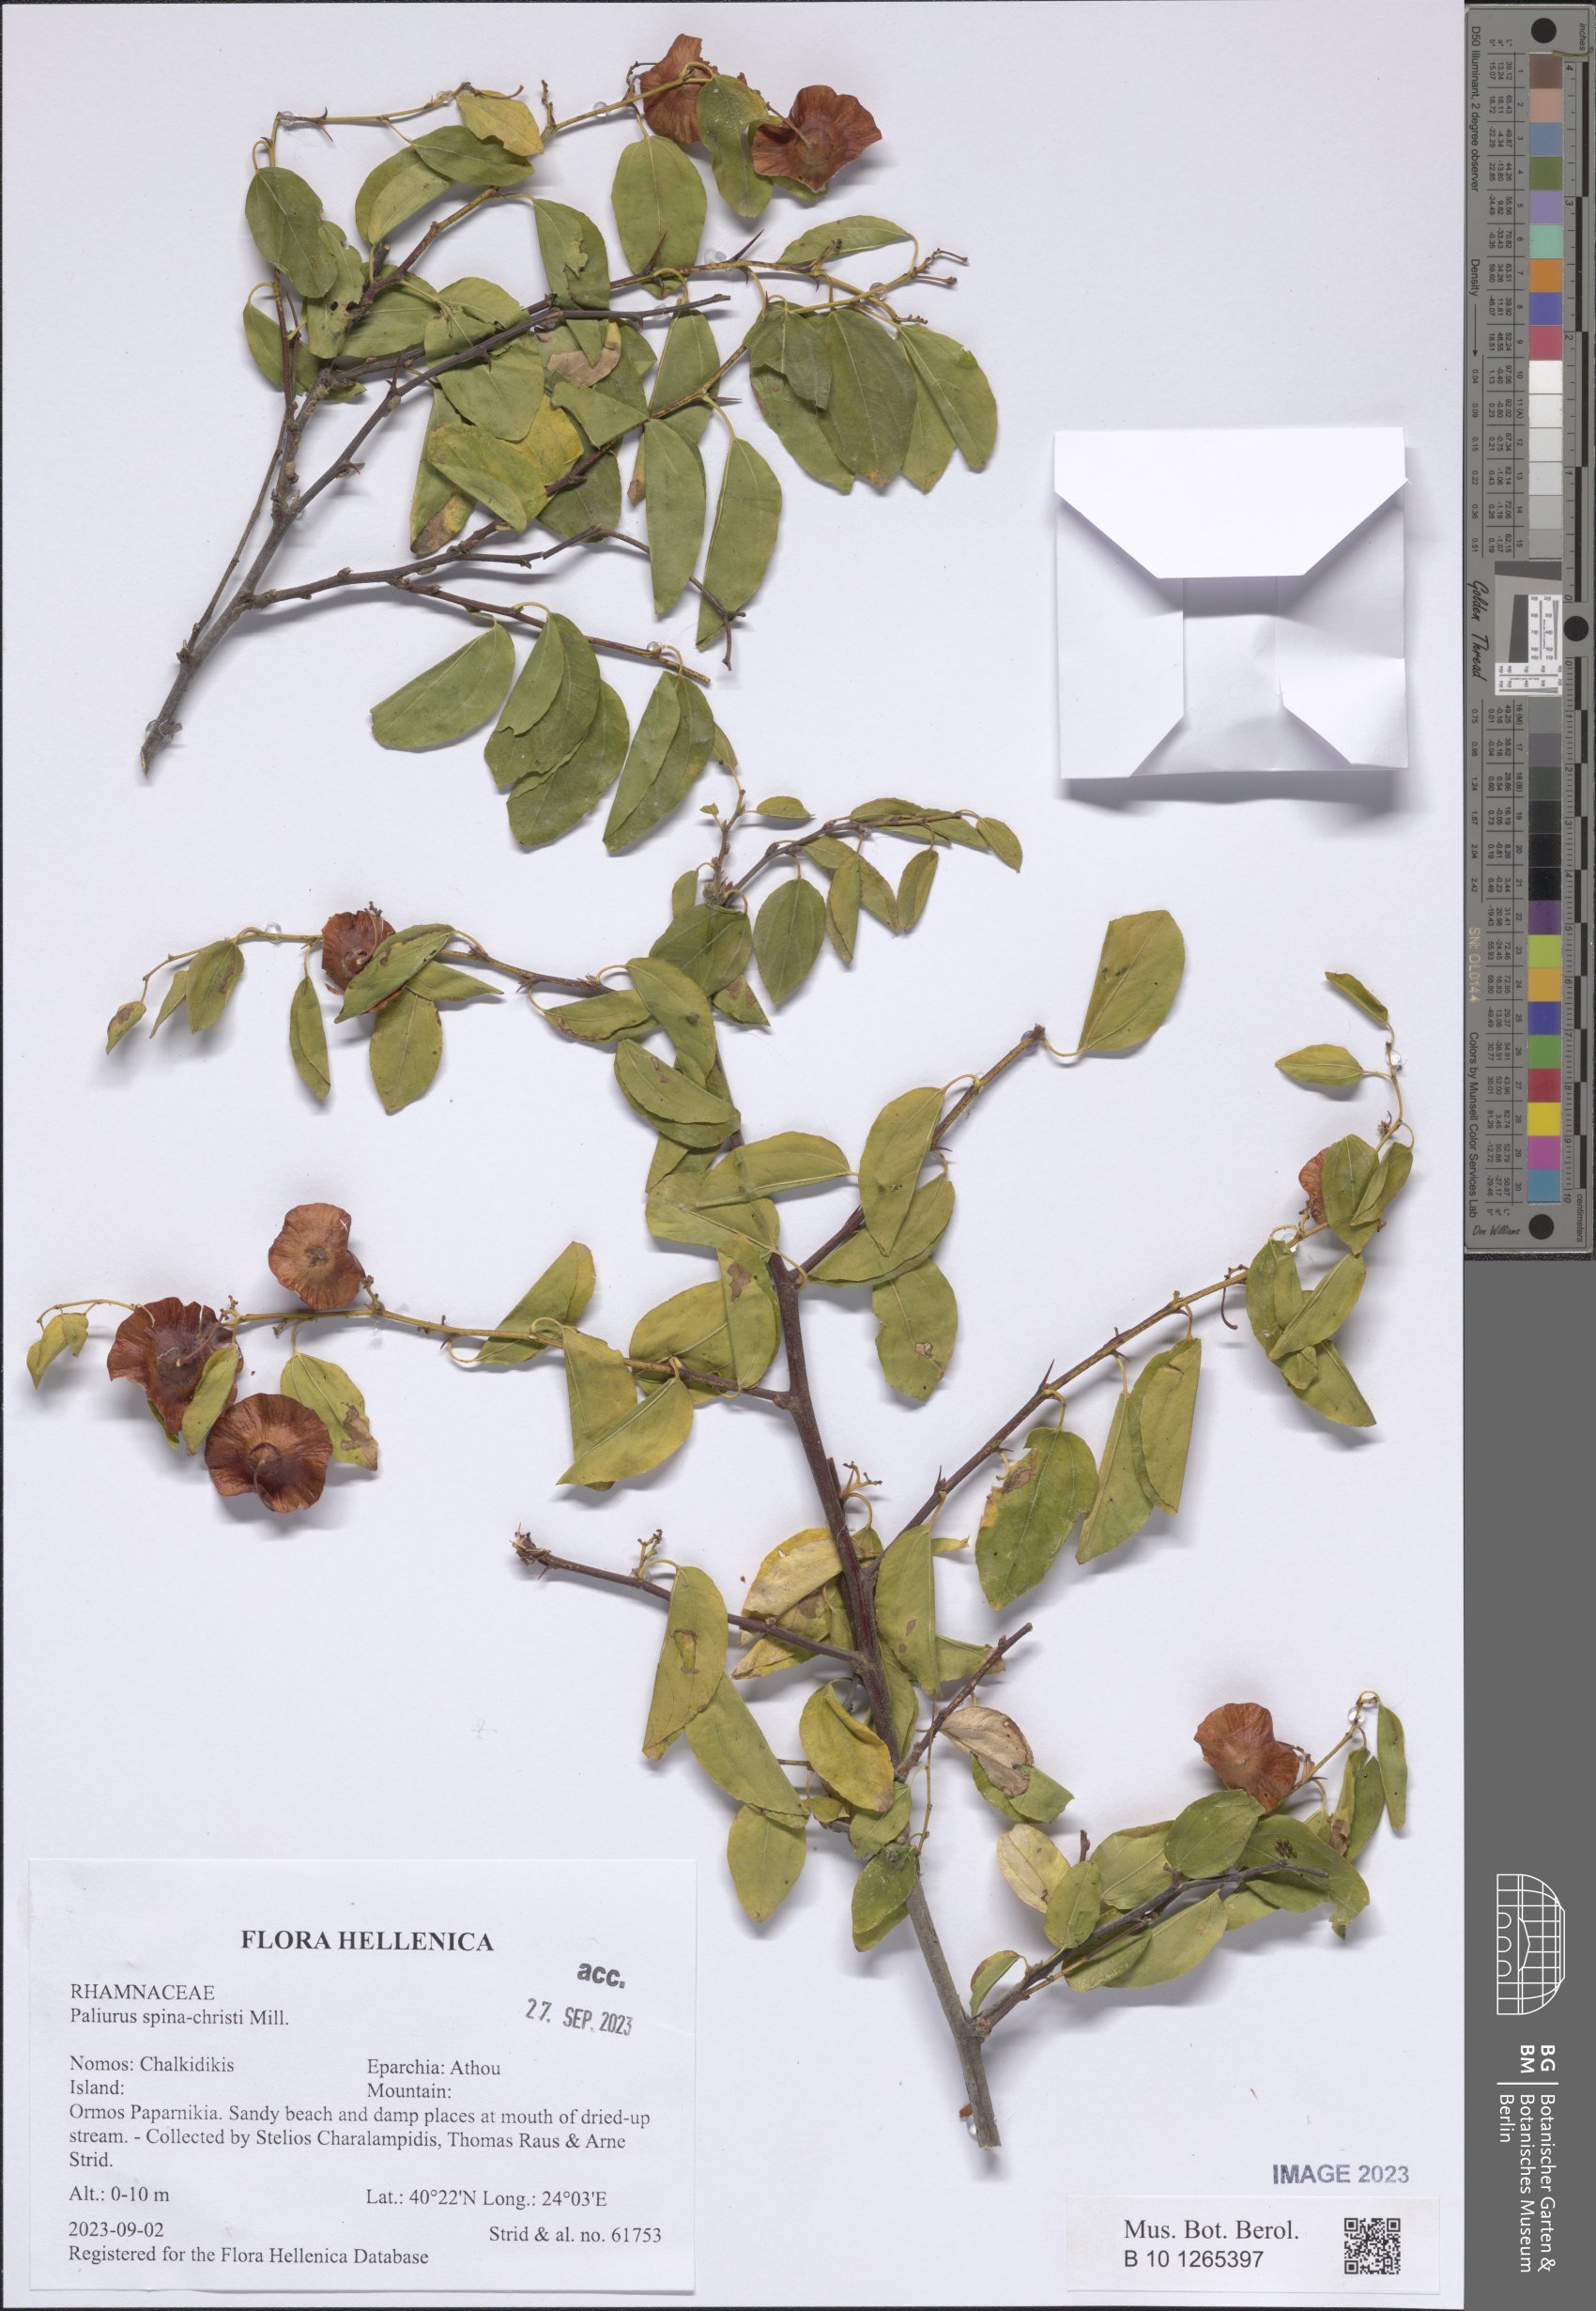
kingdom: Plantae
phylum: Tracheophyta
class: Magnoliopsida
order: Rosales
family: Rhamnaceae
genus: Paliurus
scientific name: Paliurus spina-christi
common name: Jeruselem thorn
